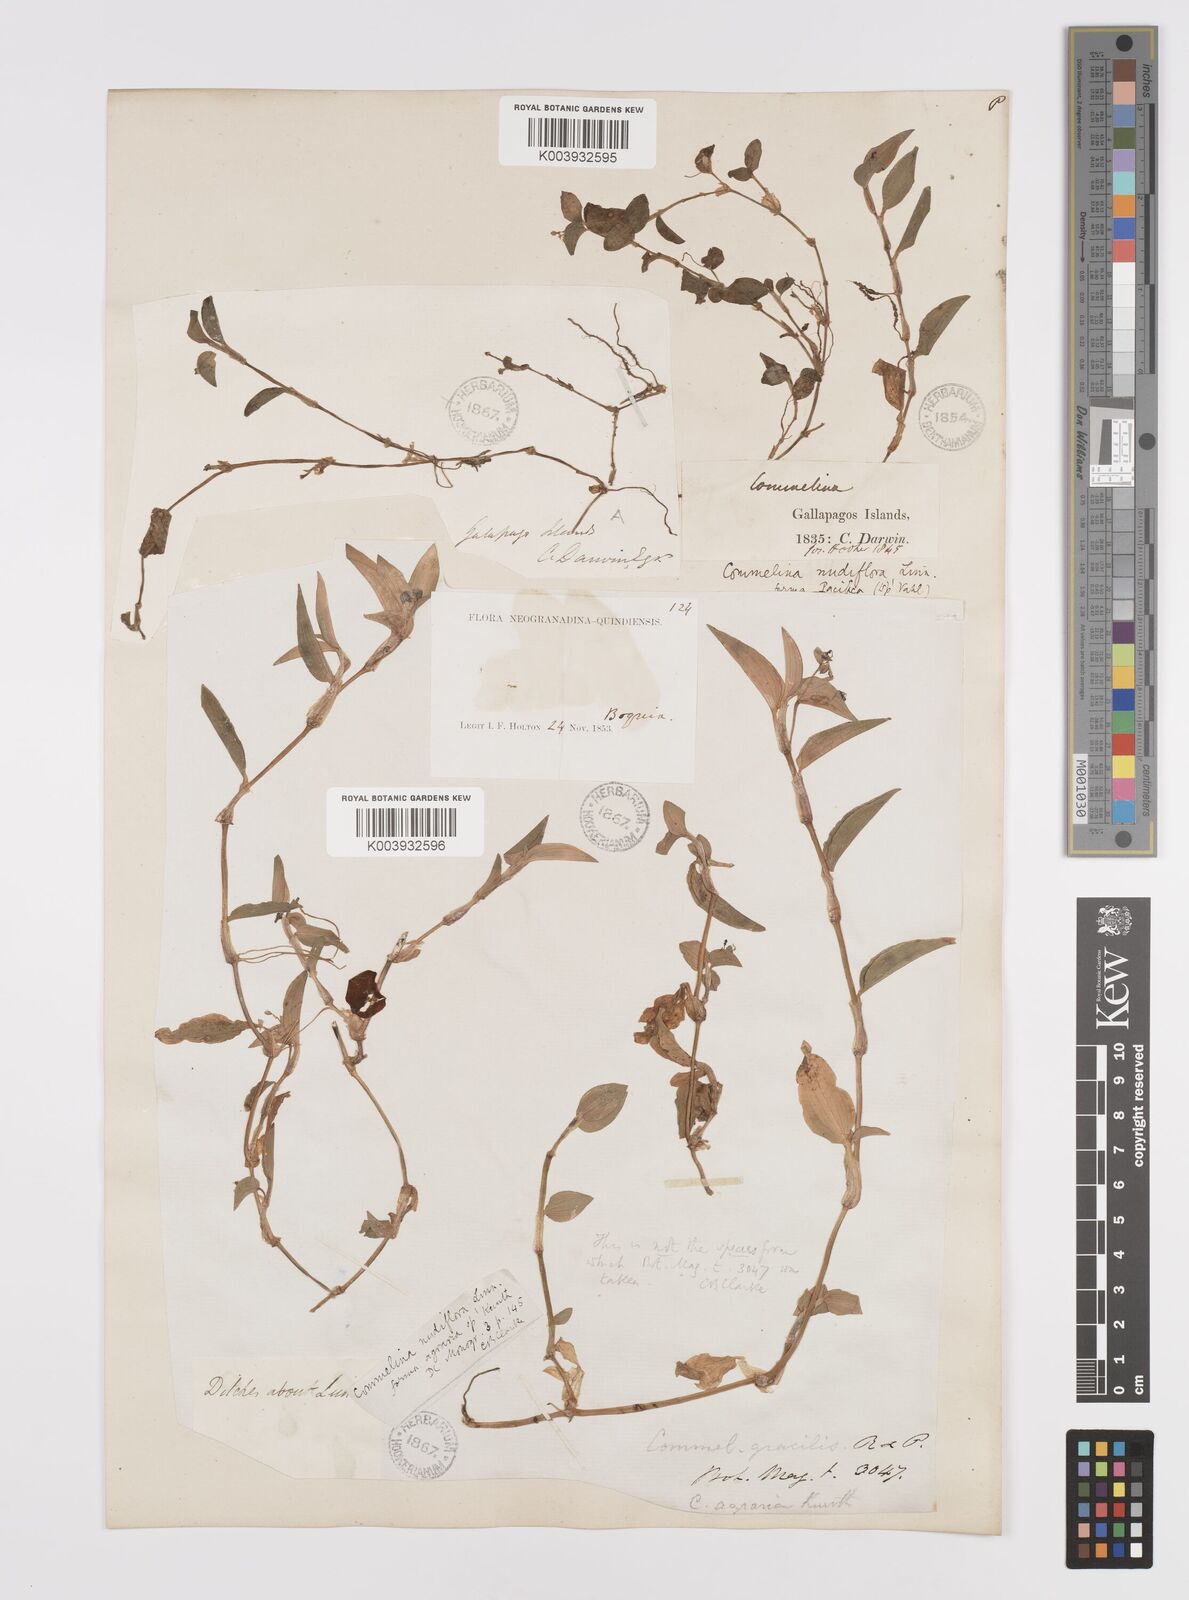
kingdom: Plantae
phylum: Tracheophyta
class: Liliopsida
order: Commelinales
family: Commelinaceae
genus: Commelina
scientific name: Commelina diffusa
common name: Climbing dayflower
